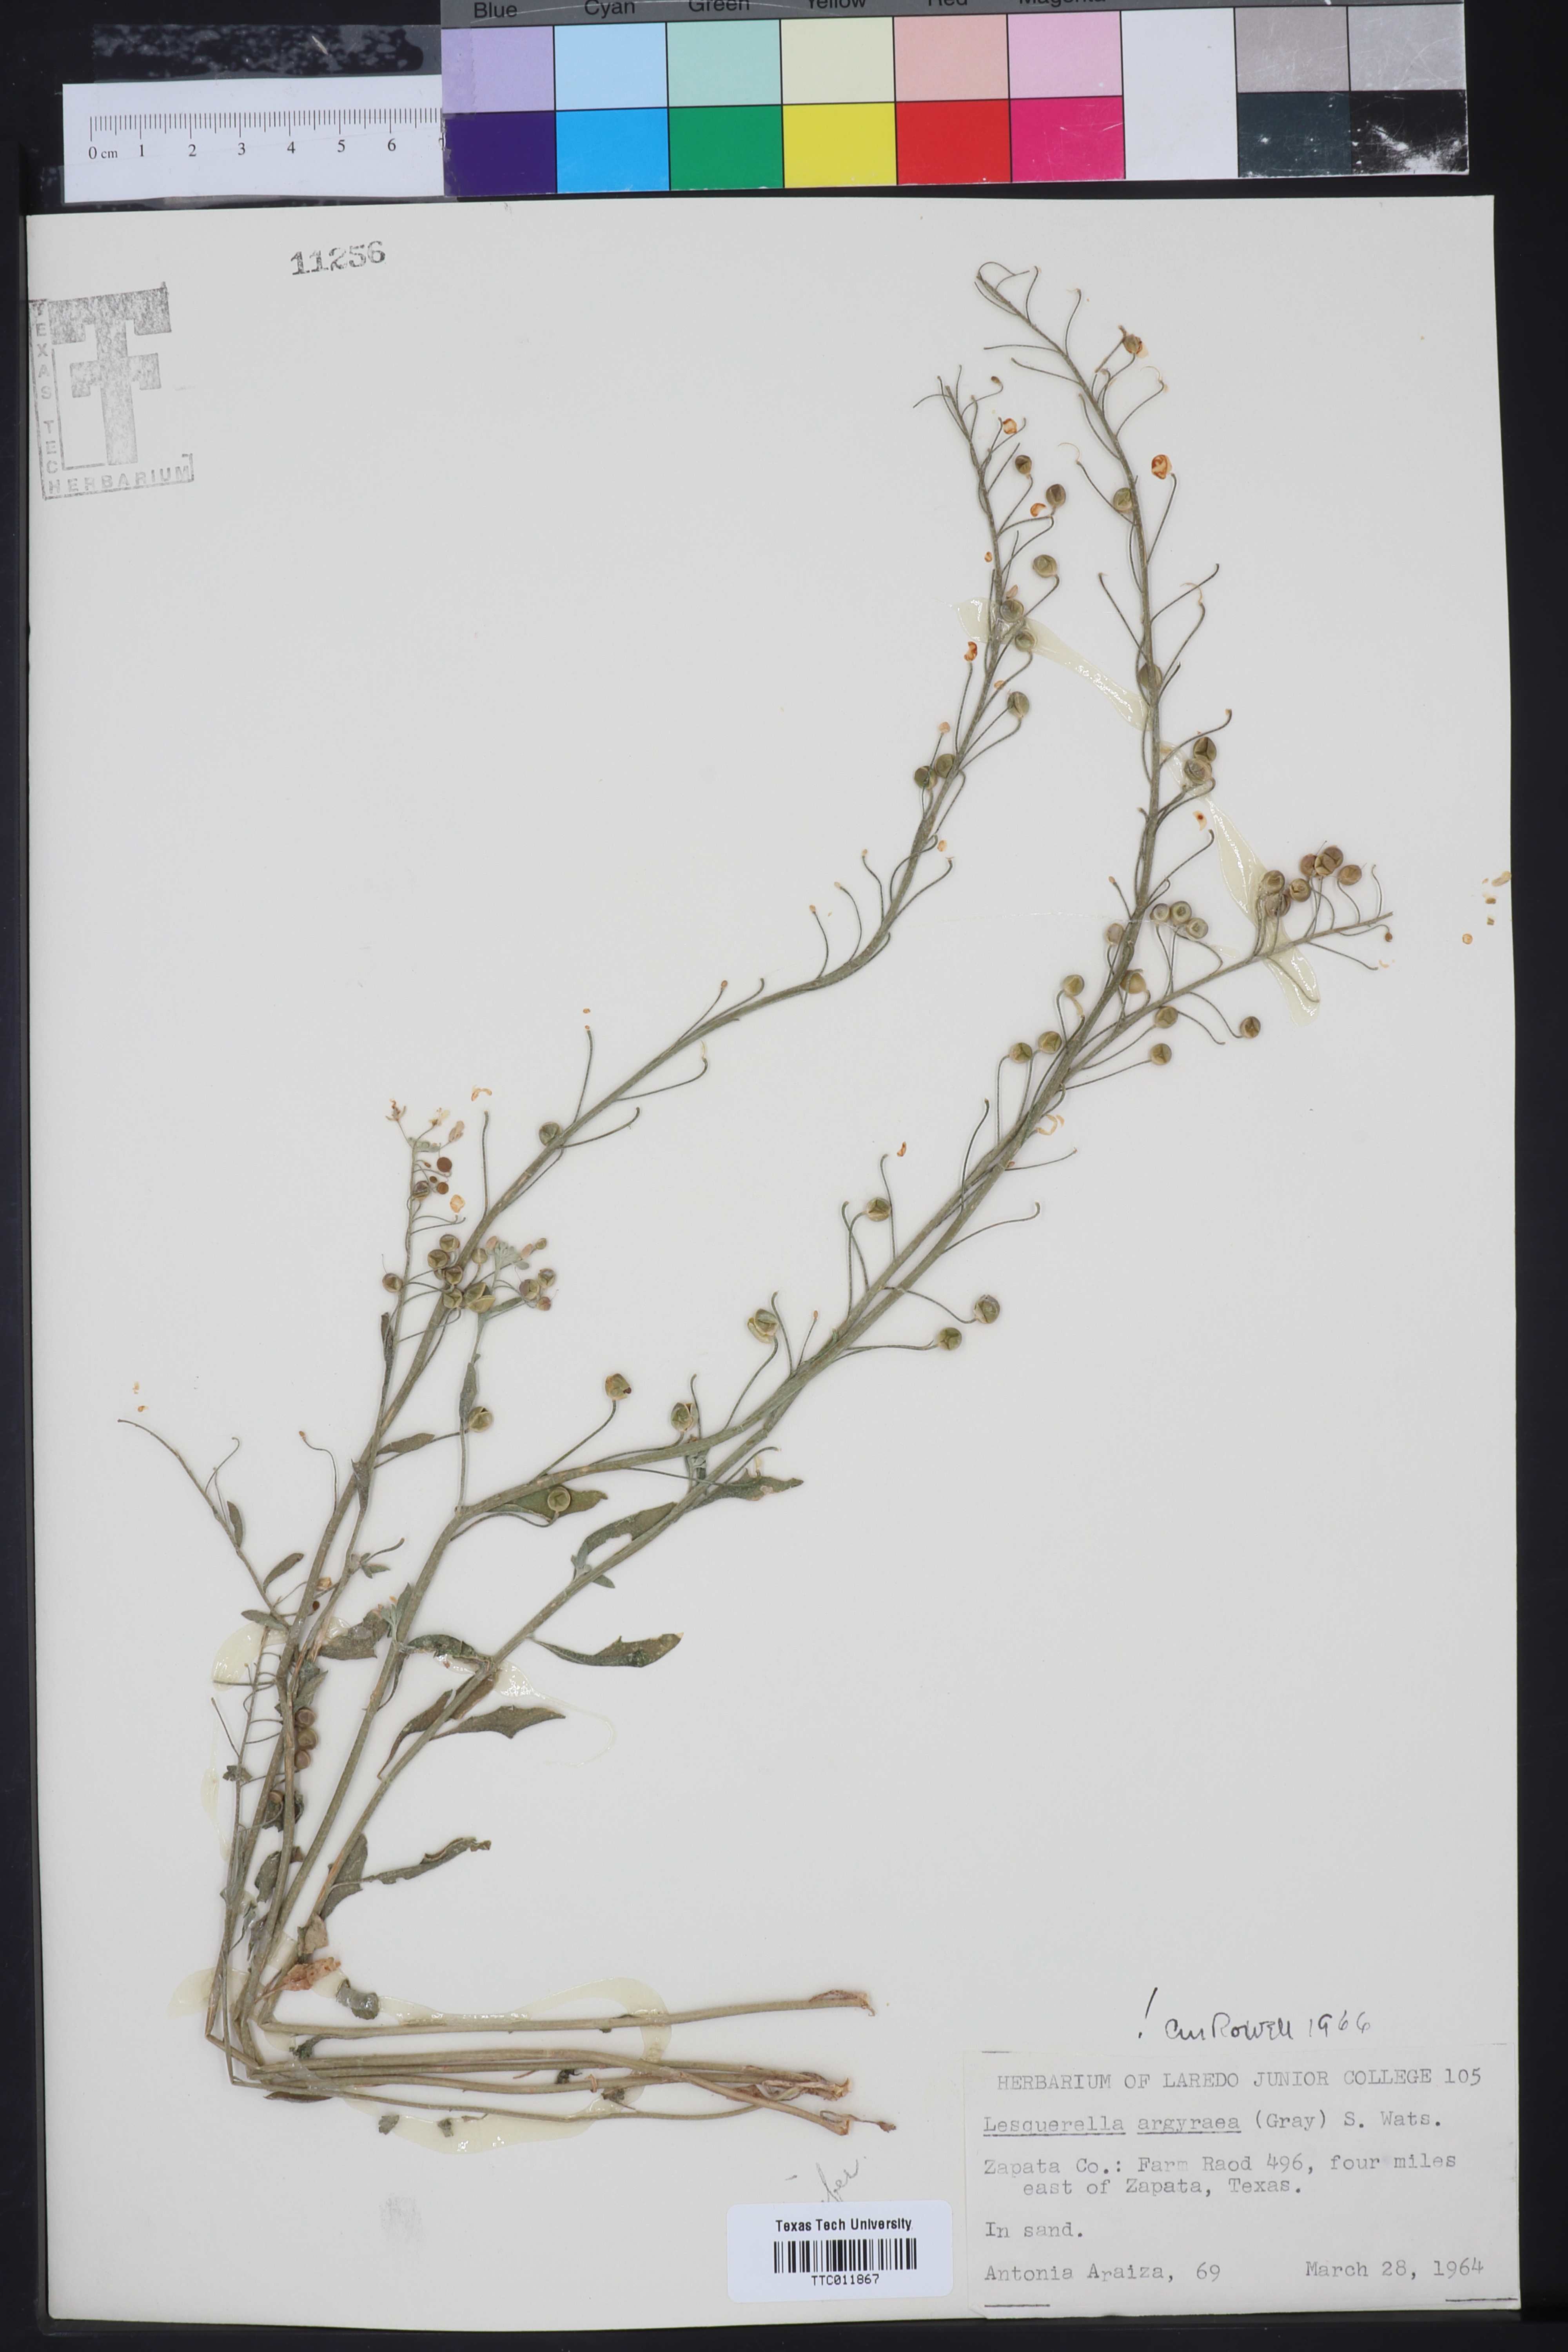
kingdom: Plantae
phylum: Tracheophyta
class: Magnoliopsida
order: Brassicales
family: Brassicaceae
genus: Physaria
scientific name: Physaria argyraea
